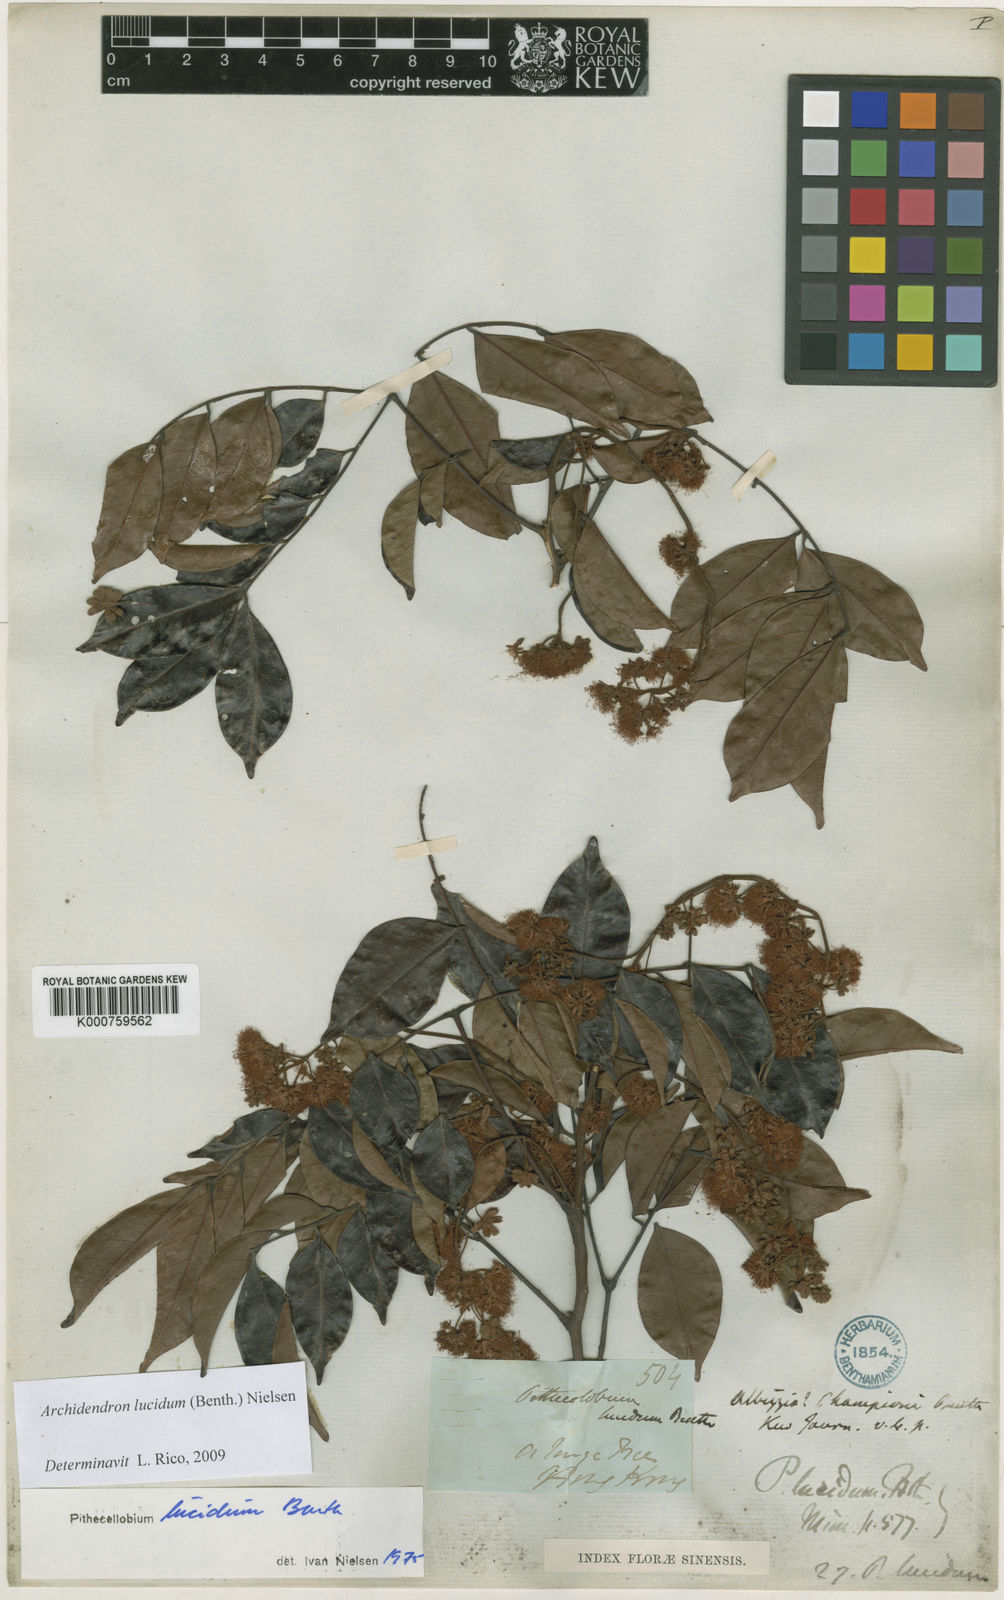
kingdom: Plantae
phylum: Tracheophyta
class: Magnoliopsida
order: Fabales
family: Fabaceae
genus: Archidendron
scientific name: Archidendron lucidum
